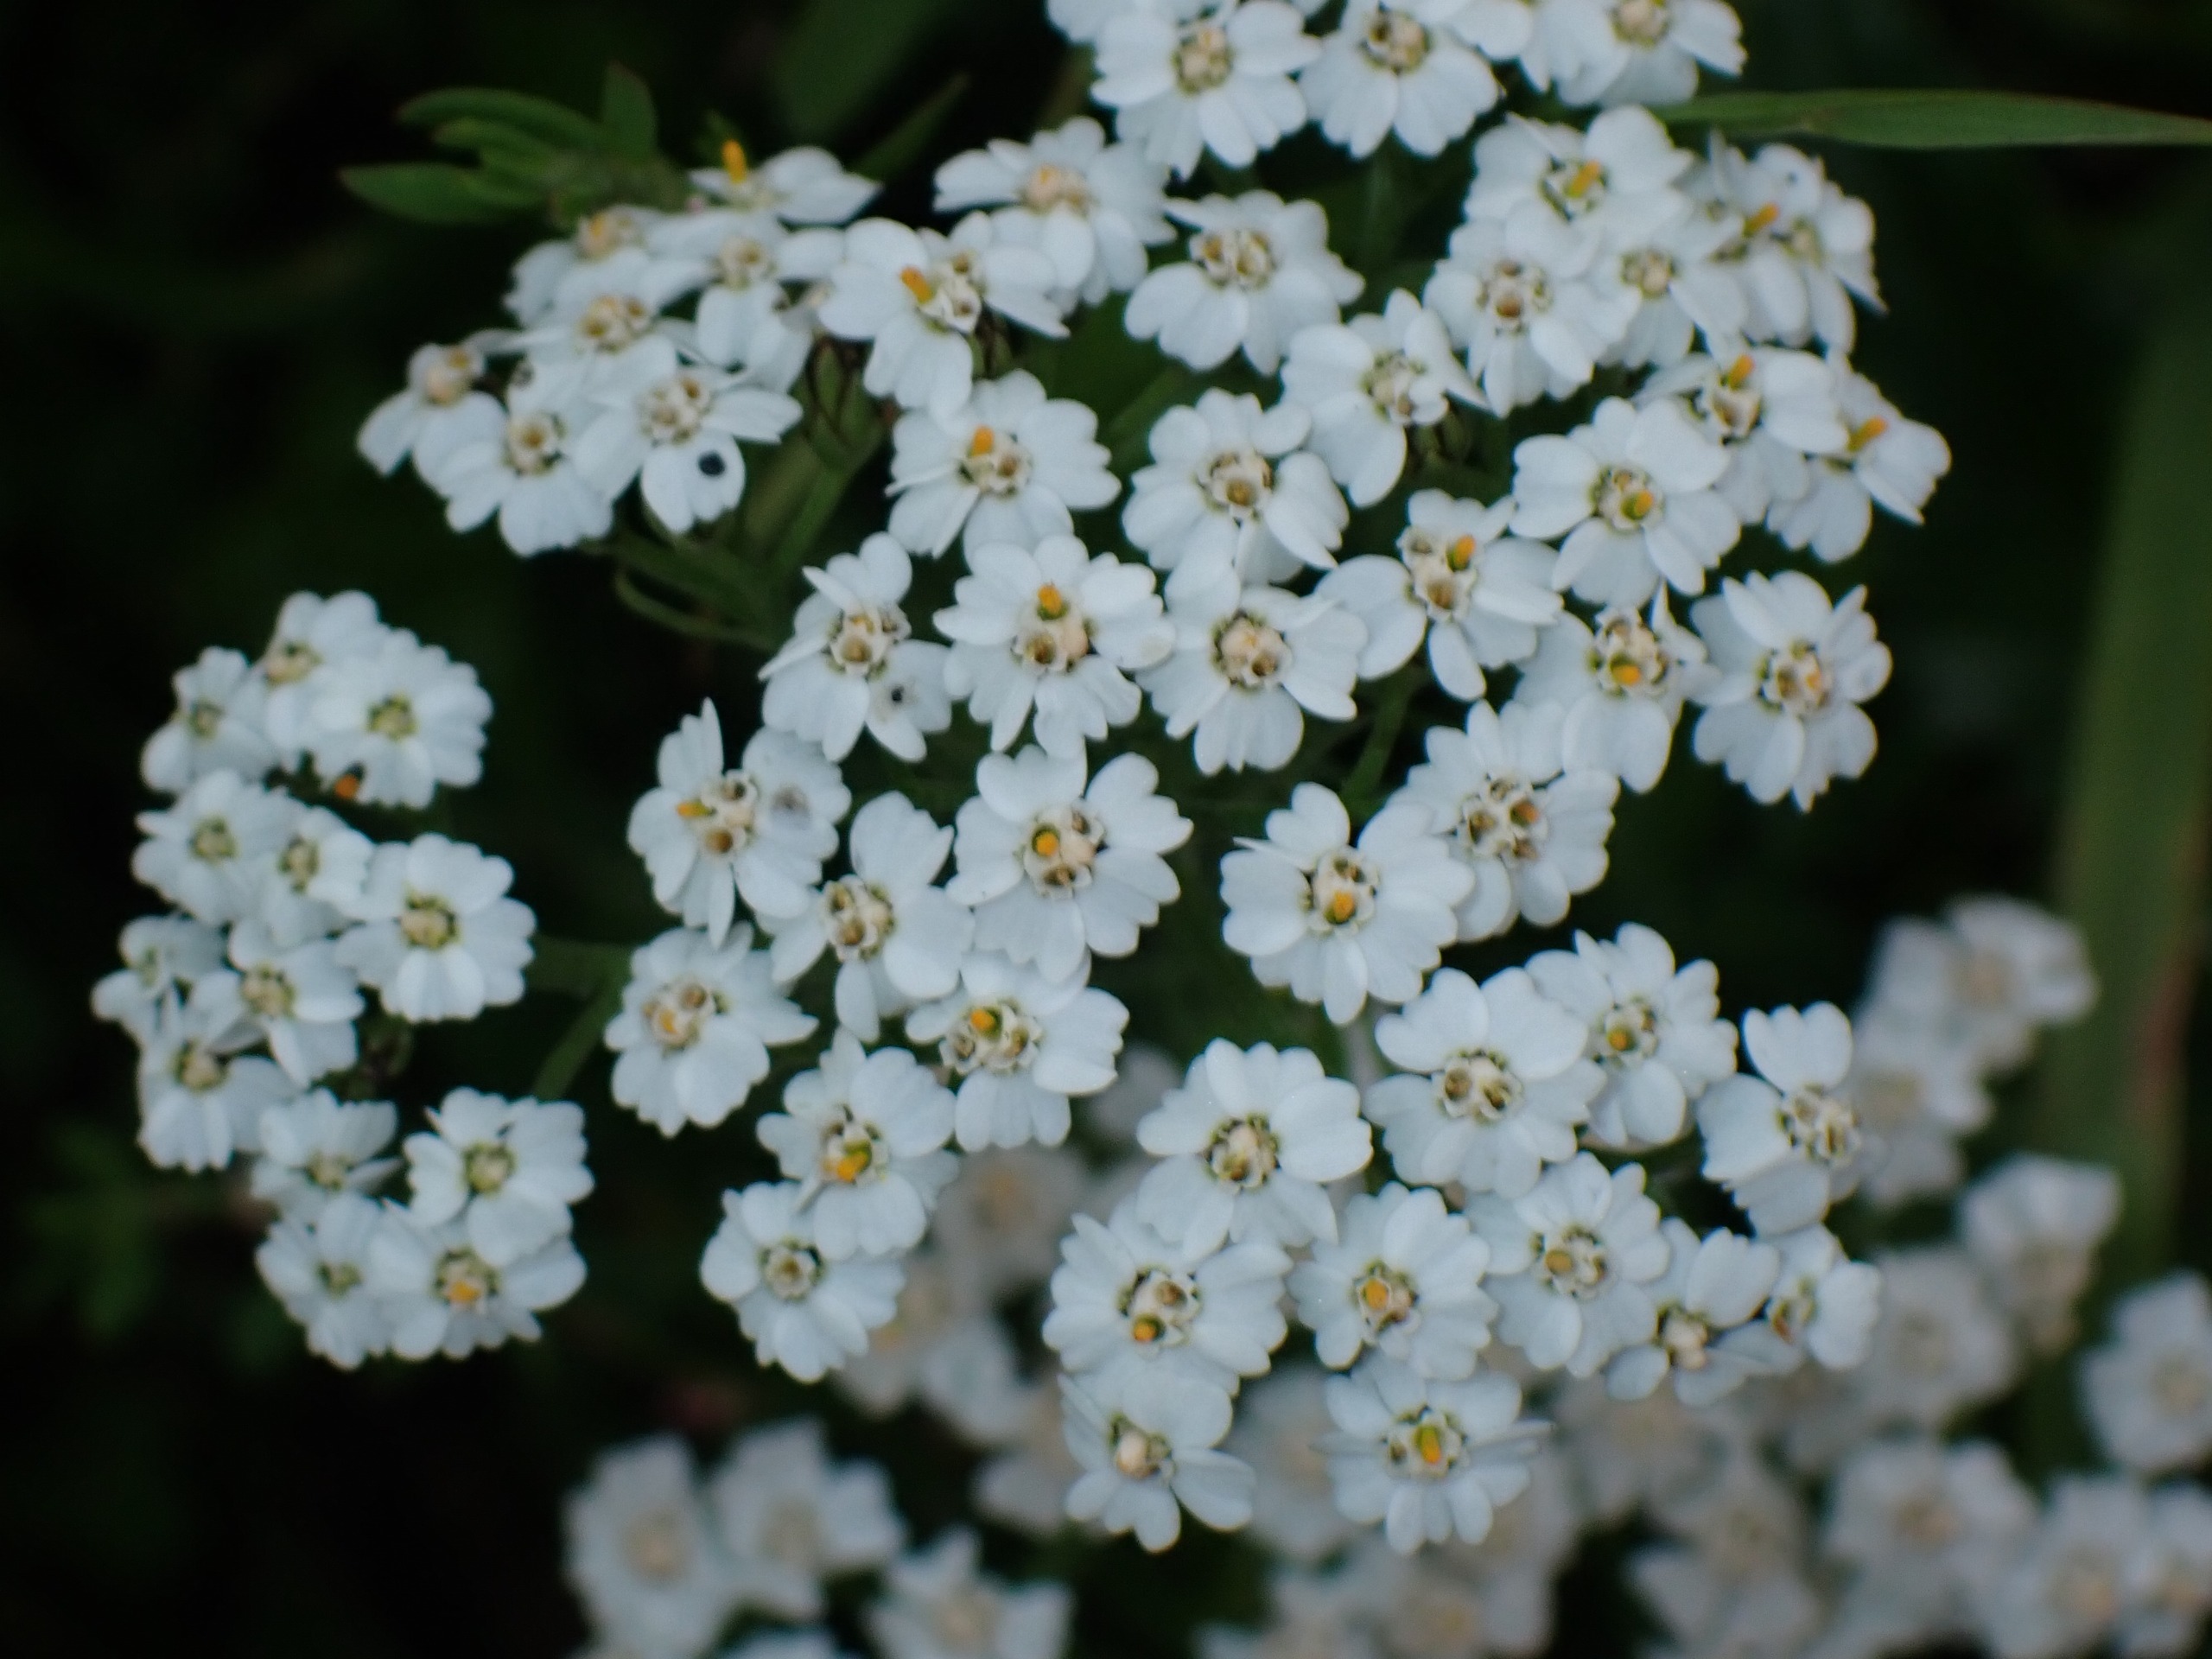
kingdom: Plantae
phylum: Tracheophyta
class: Magnoliopsida
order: Asterales
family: Asteraceae
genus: Achillea
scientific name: Achillea millefolium
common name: Almindelig røllike
